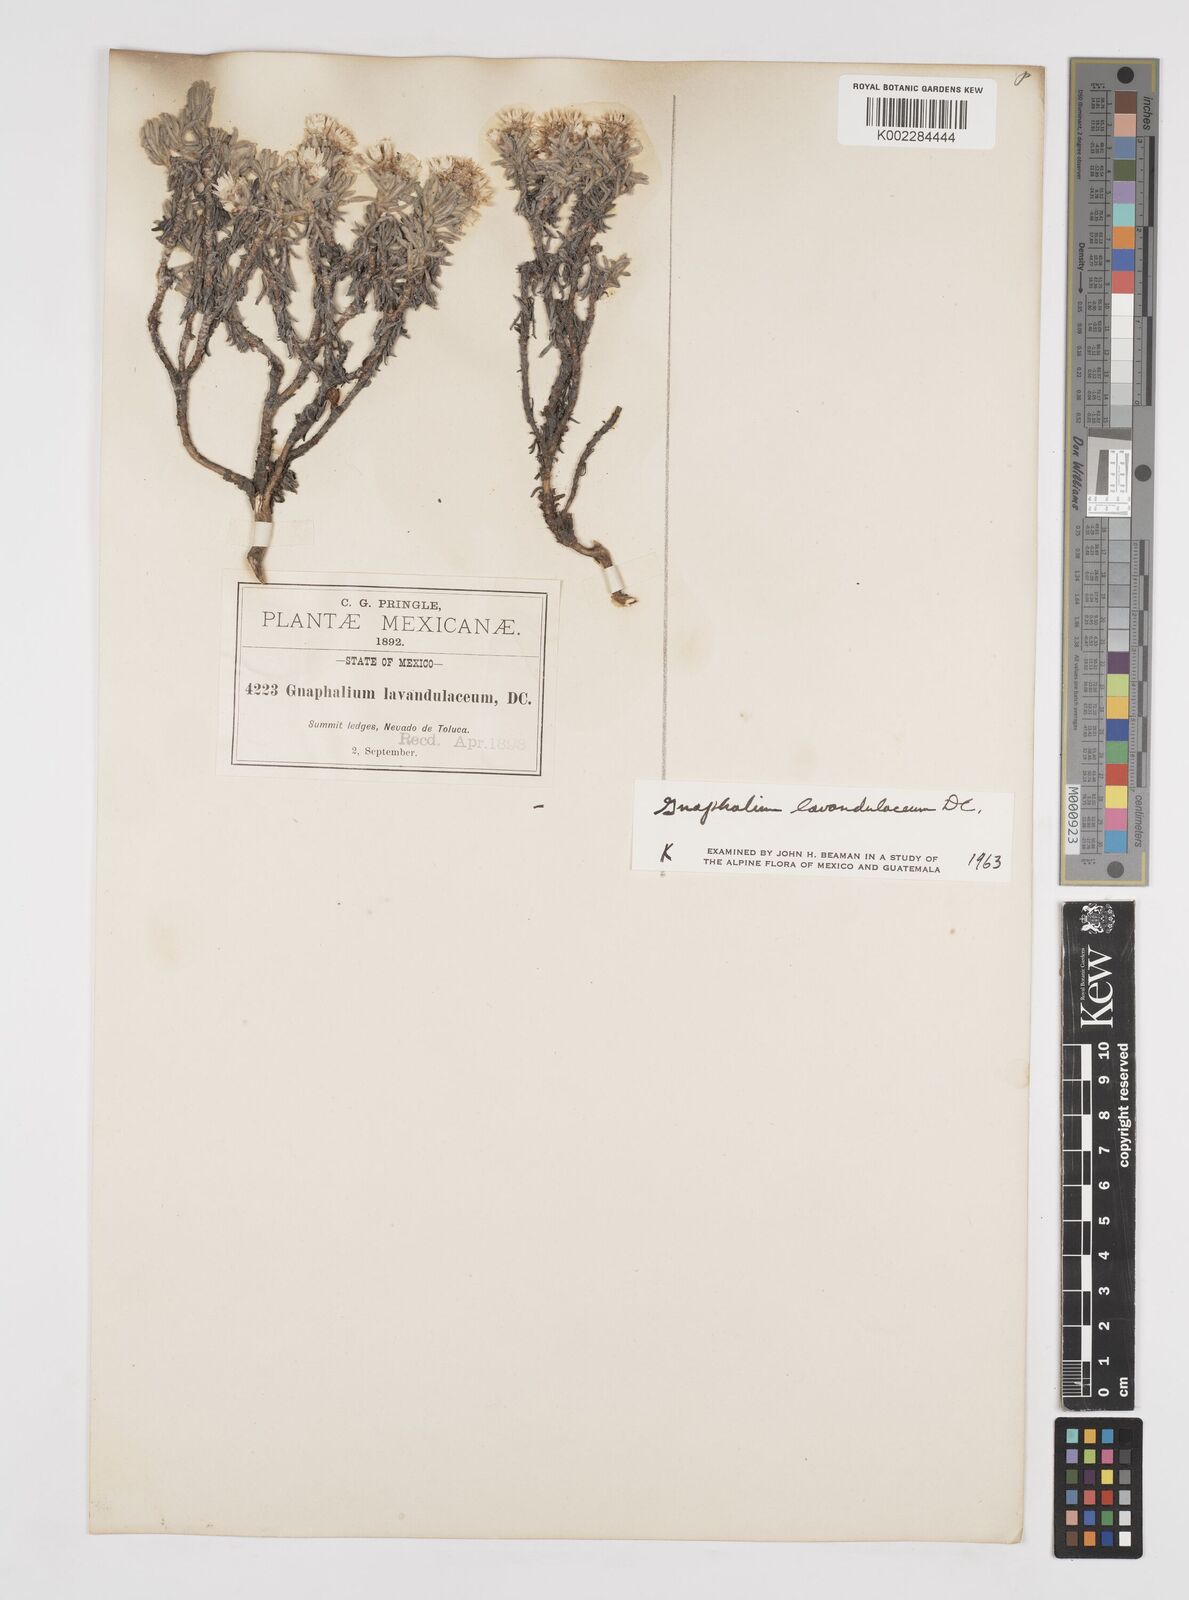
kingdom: Plantae
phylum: Tracheophyta
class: Magnoliopsida
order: Asterales
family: Asteraceae
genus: Gnaphaliothamnus
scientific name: Gnaphaliothamnus lavandulifolius
